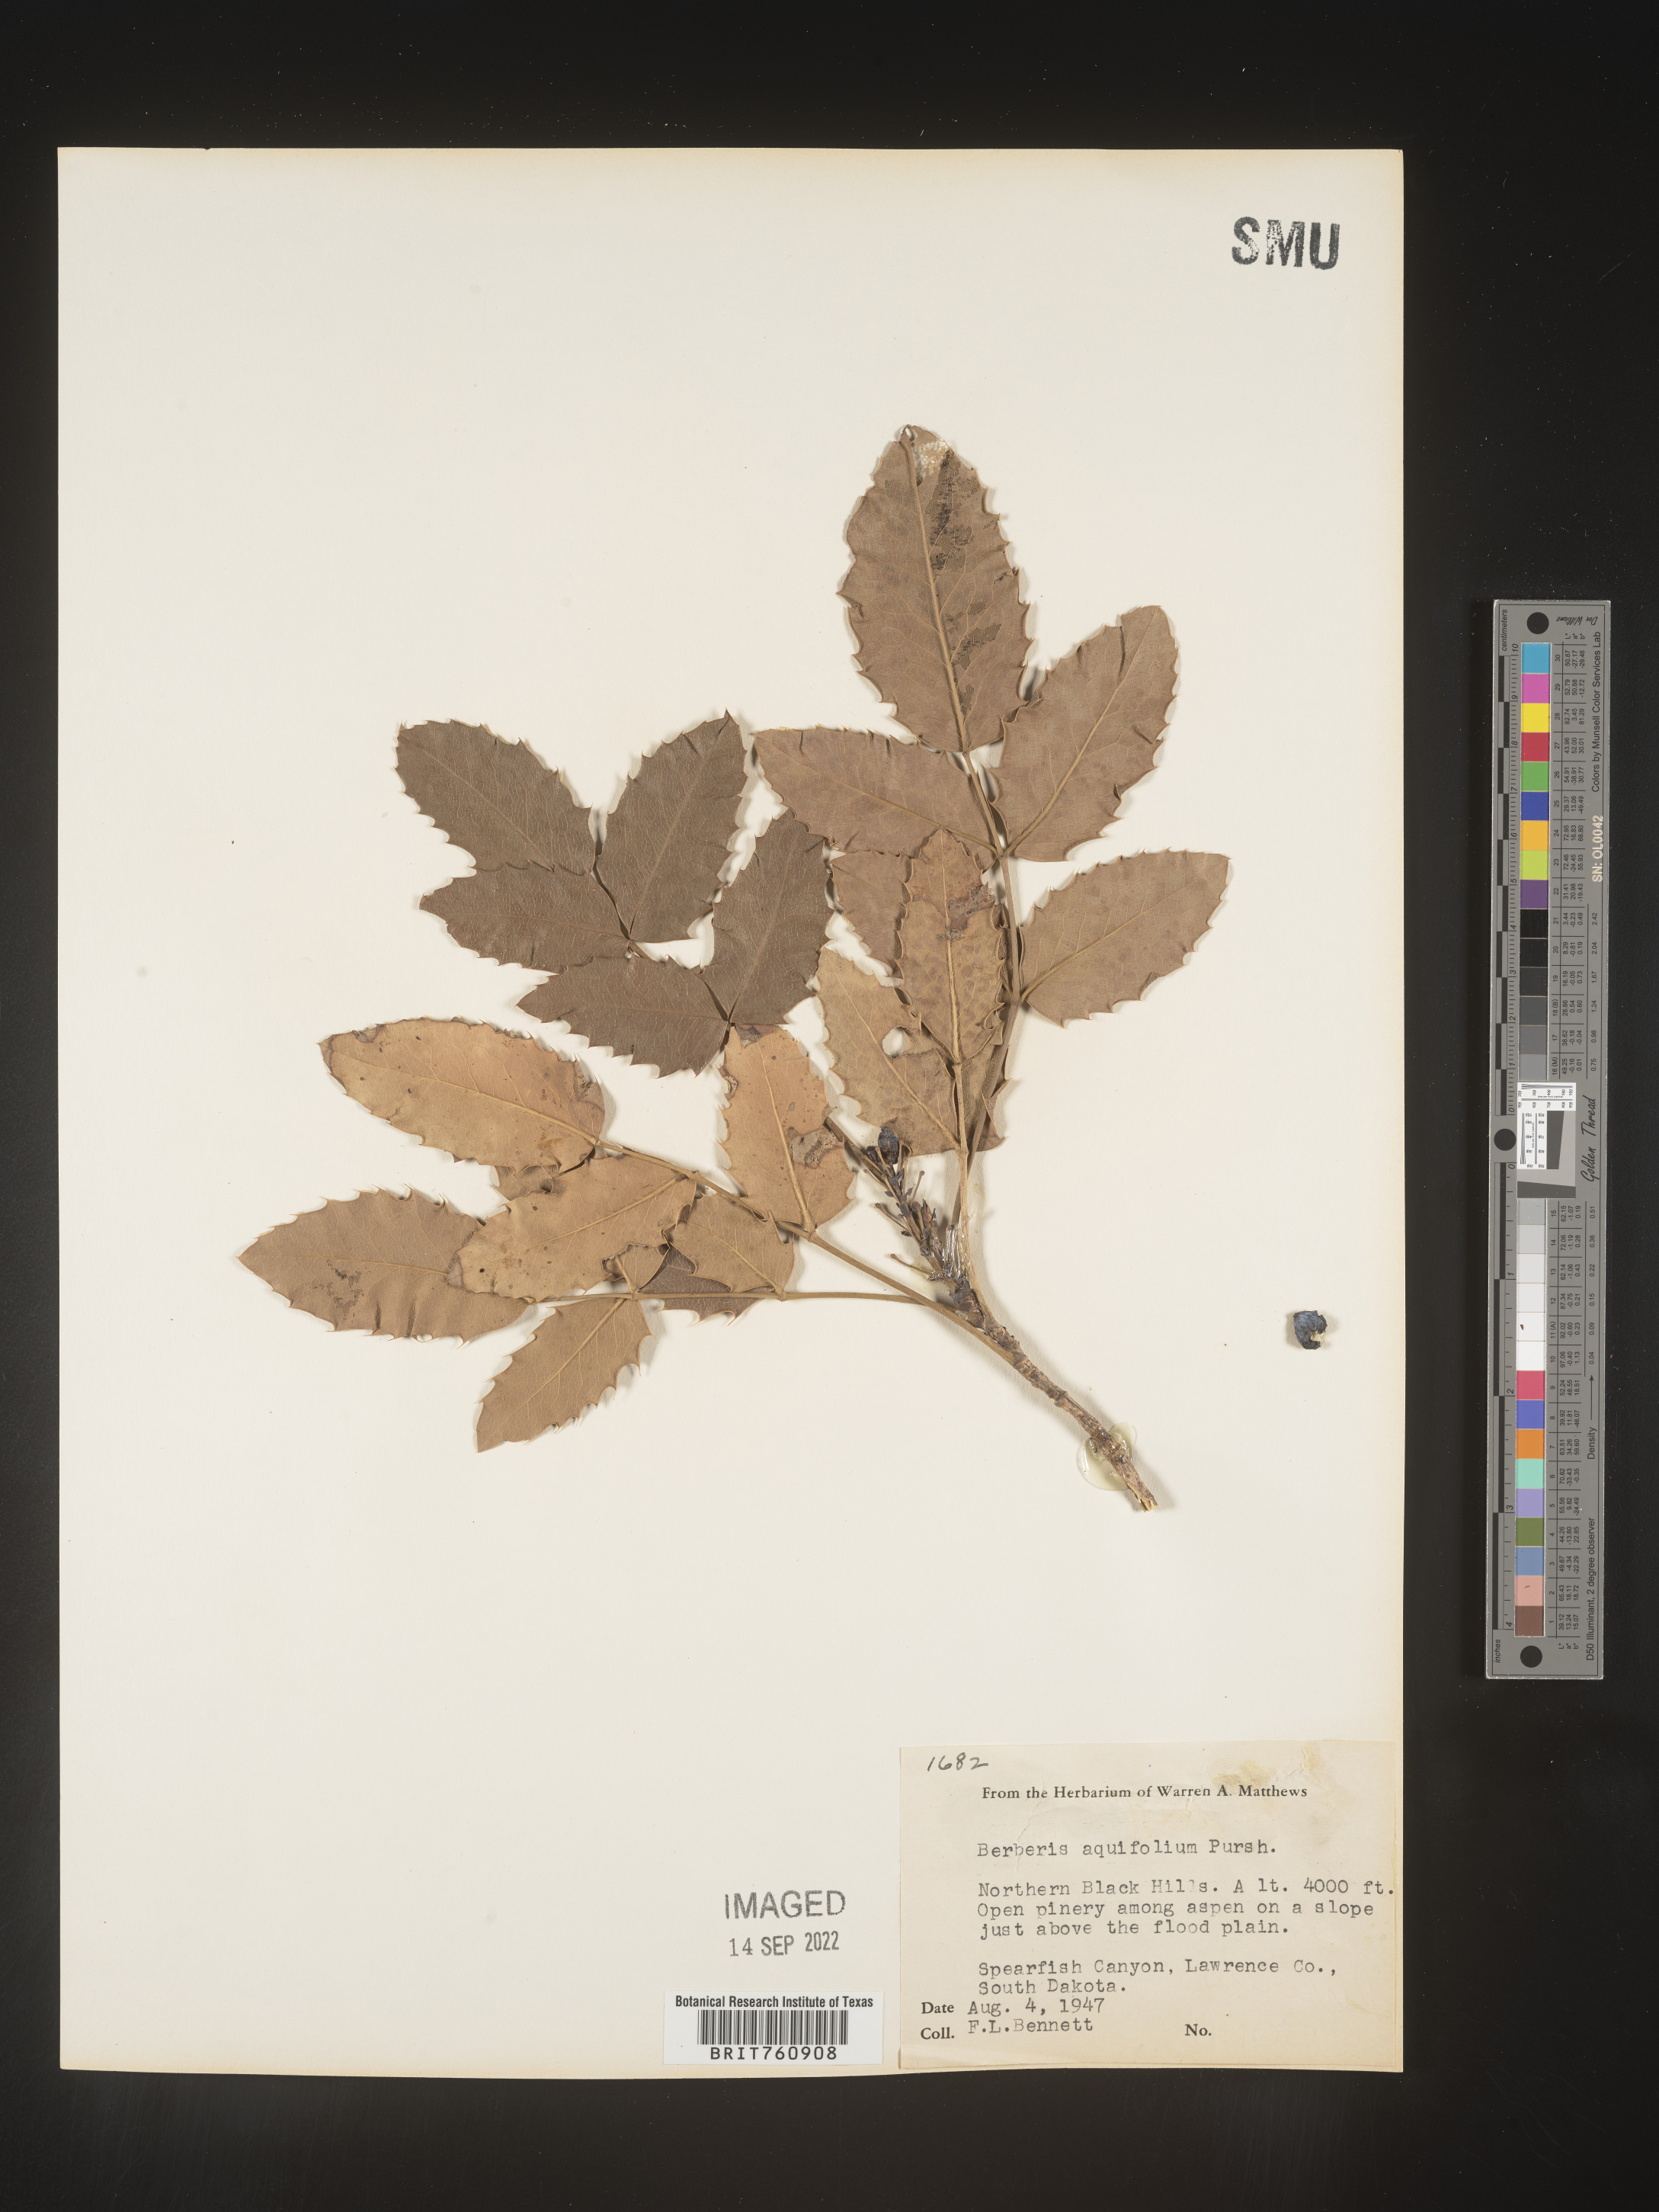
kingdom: Plantae
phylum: Tracheophyta
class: Magnoliopsida
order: Ranunculales
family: Berberidaceae
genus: Mahonia
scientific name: Mahonia aquifolium
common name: Oregon-grape
